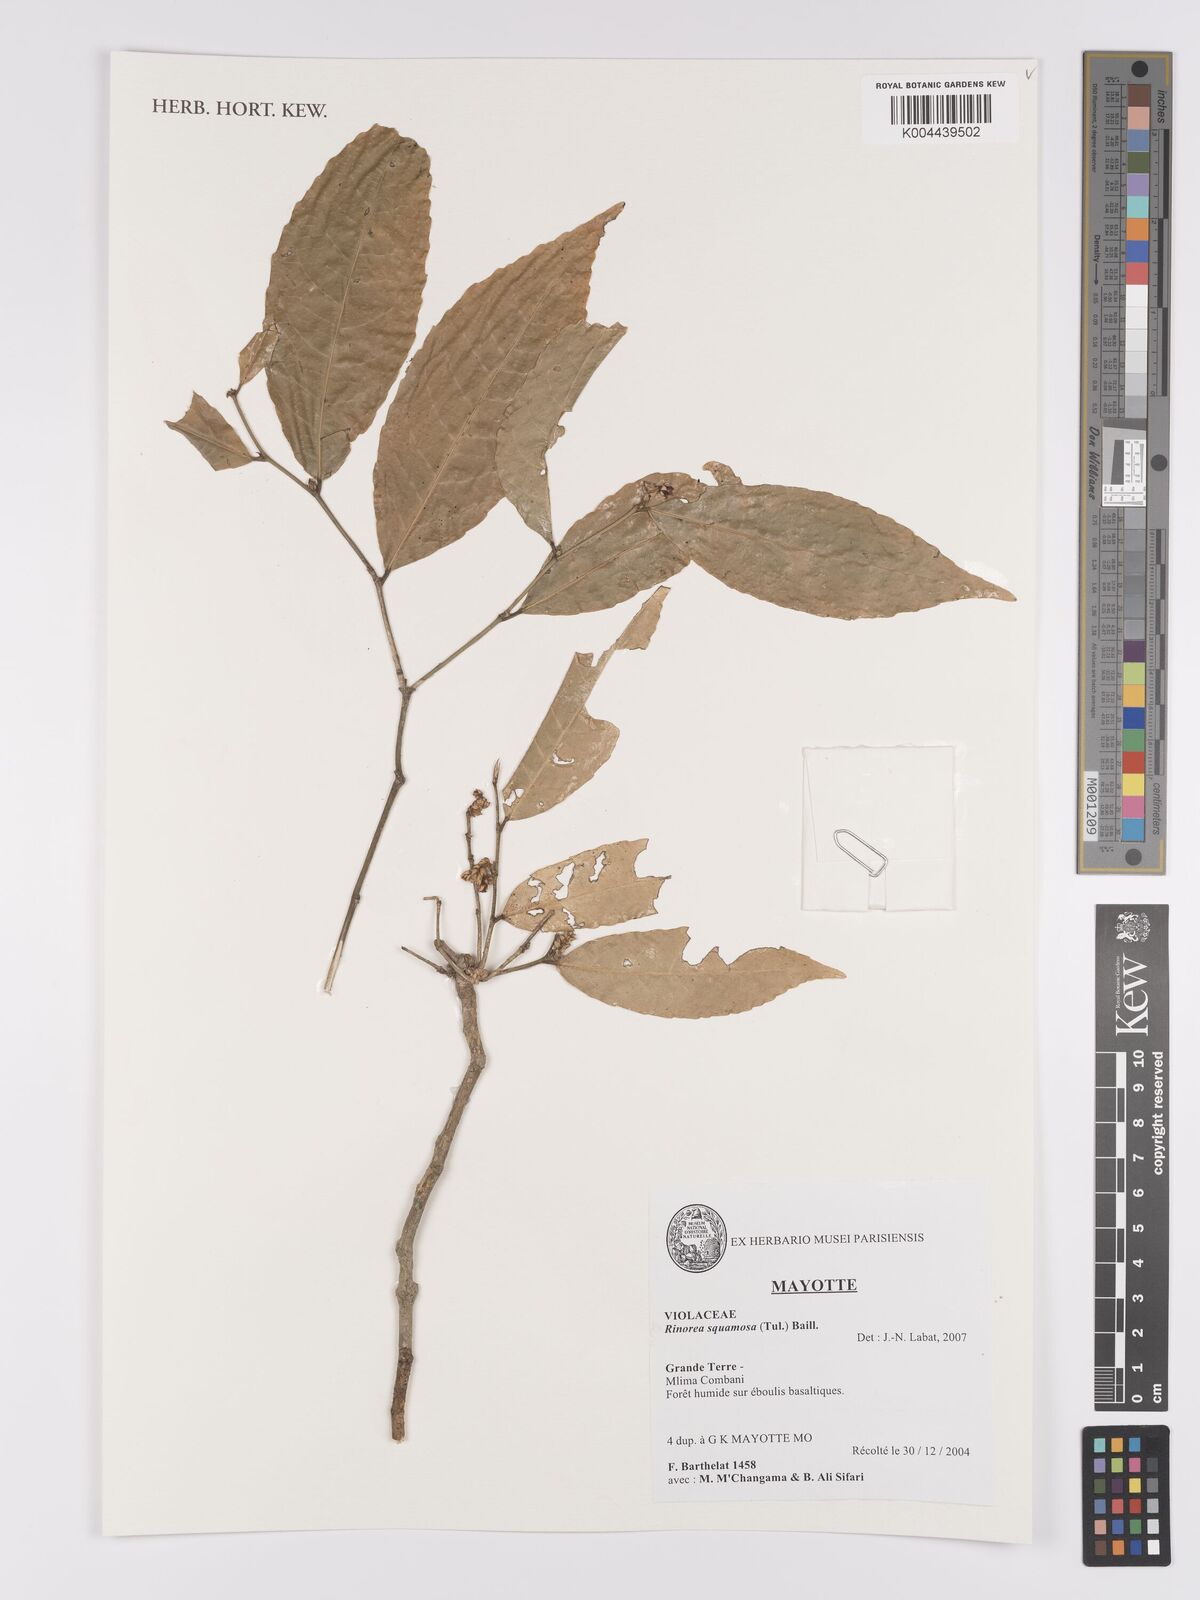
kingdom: Plantae
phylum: Tracheophyta
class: Magnoliopsida
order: Malpighiales
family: Violaceae
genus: Rinorea
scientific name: Rinorea squamosa
